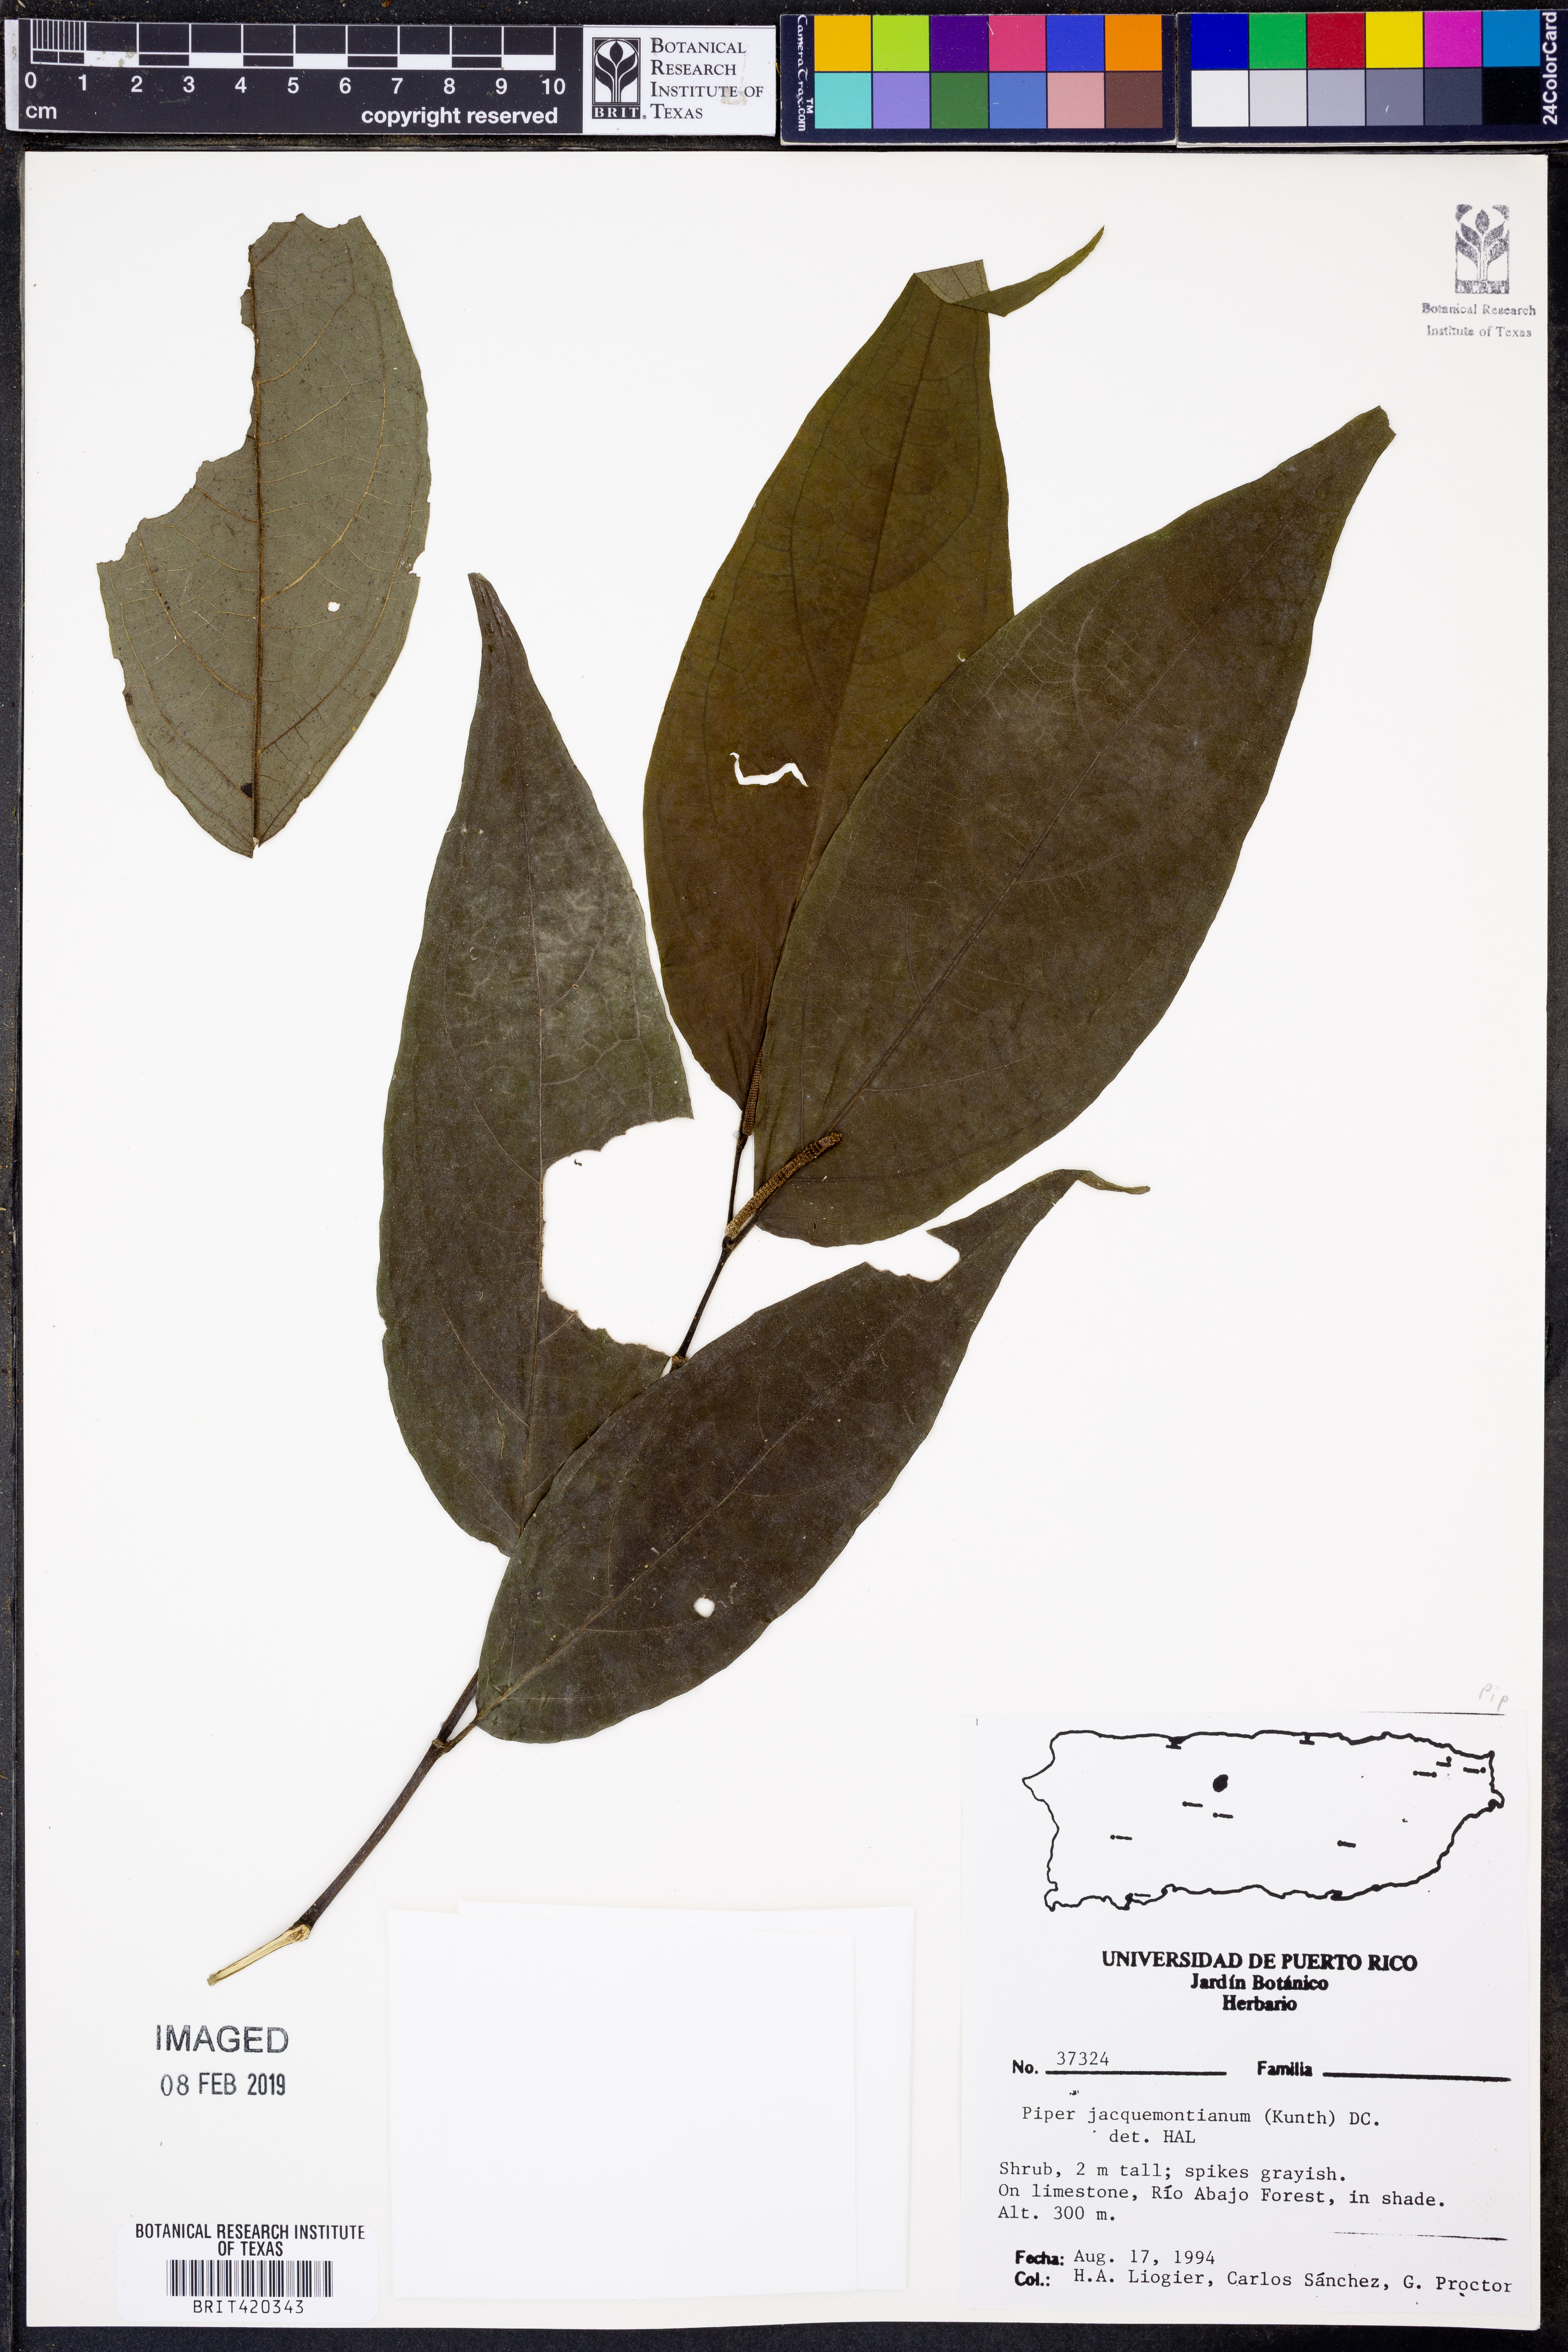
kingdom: Plantae
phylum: Tracheophyta
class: Magnoliopsida
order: Piperales
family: Piperaceae
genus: Piper
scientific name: Piper jacquemontianum
